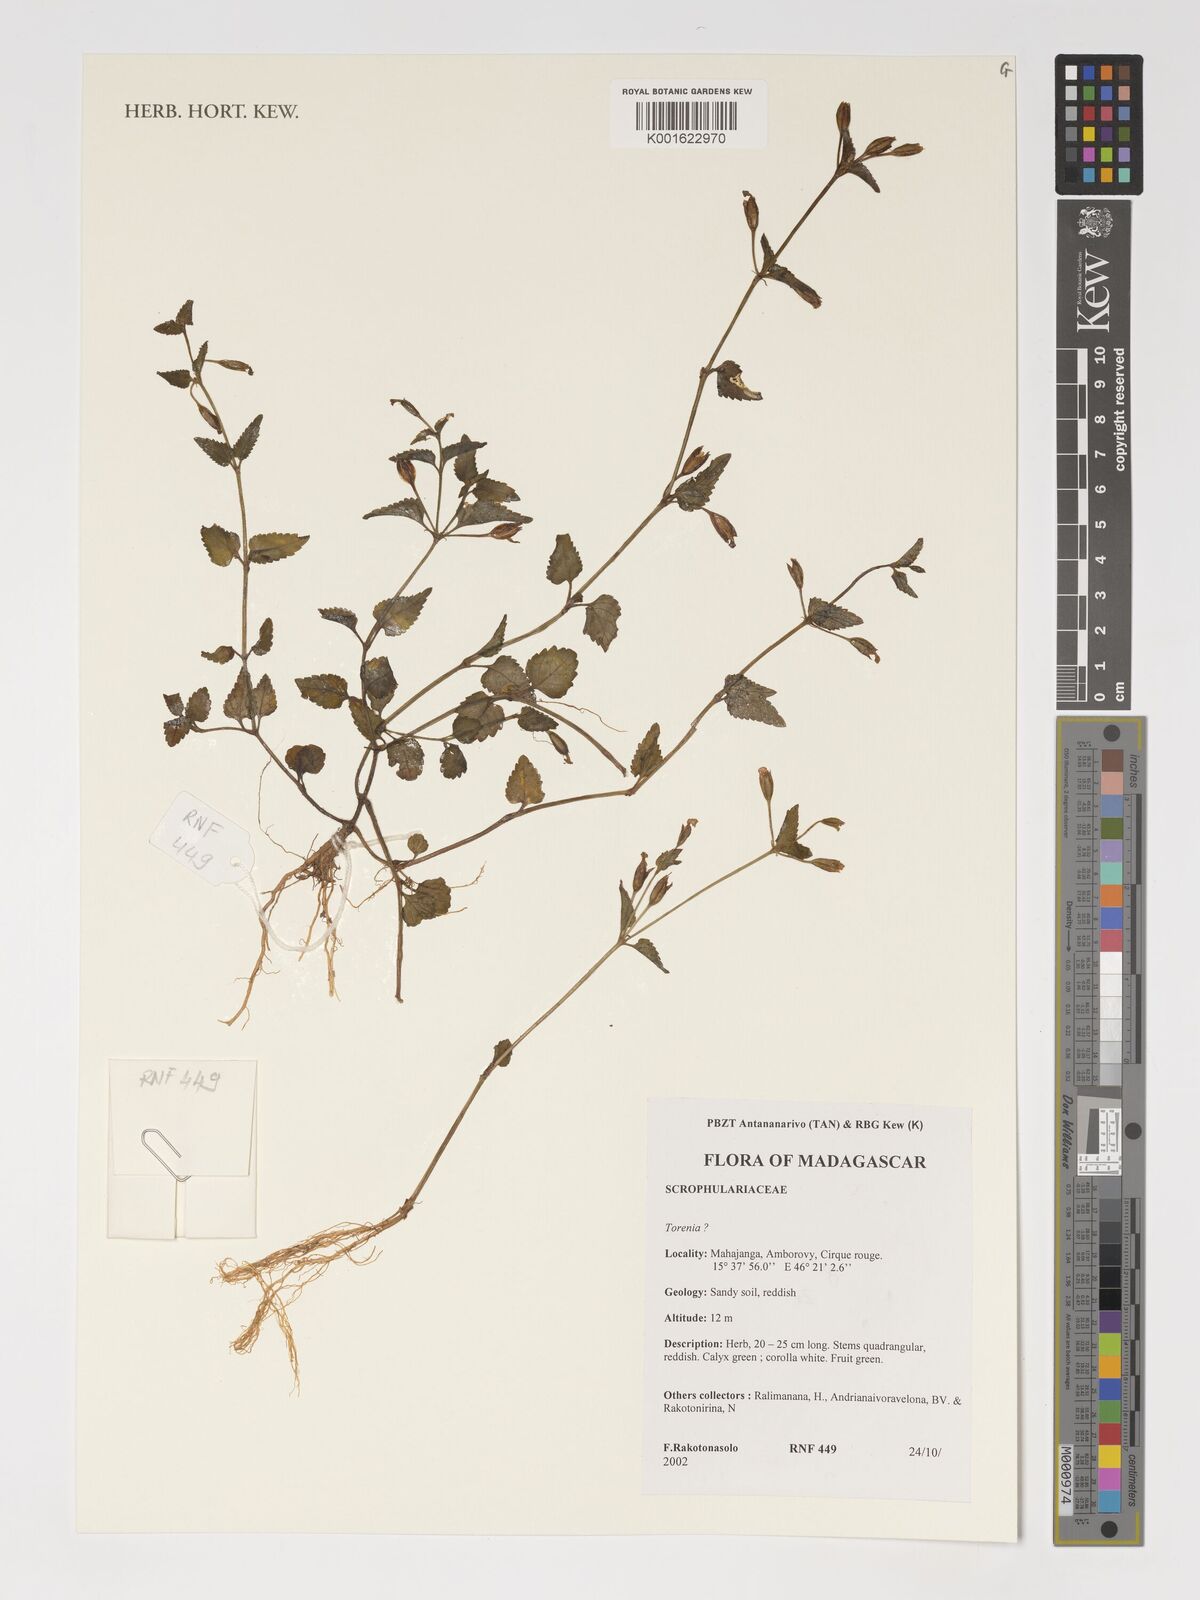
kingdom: Plantae
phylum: Tracheophyta
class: Magnoliopsida
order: Lamiales
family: Linderniaceae
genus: Torenia
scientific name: Torenia
